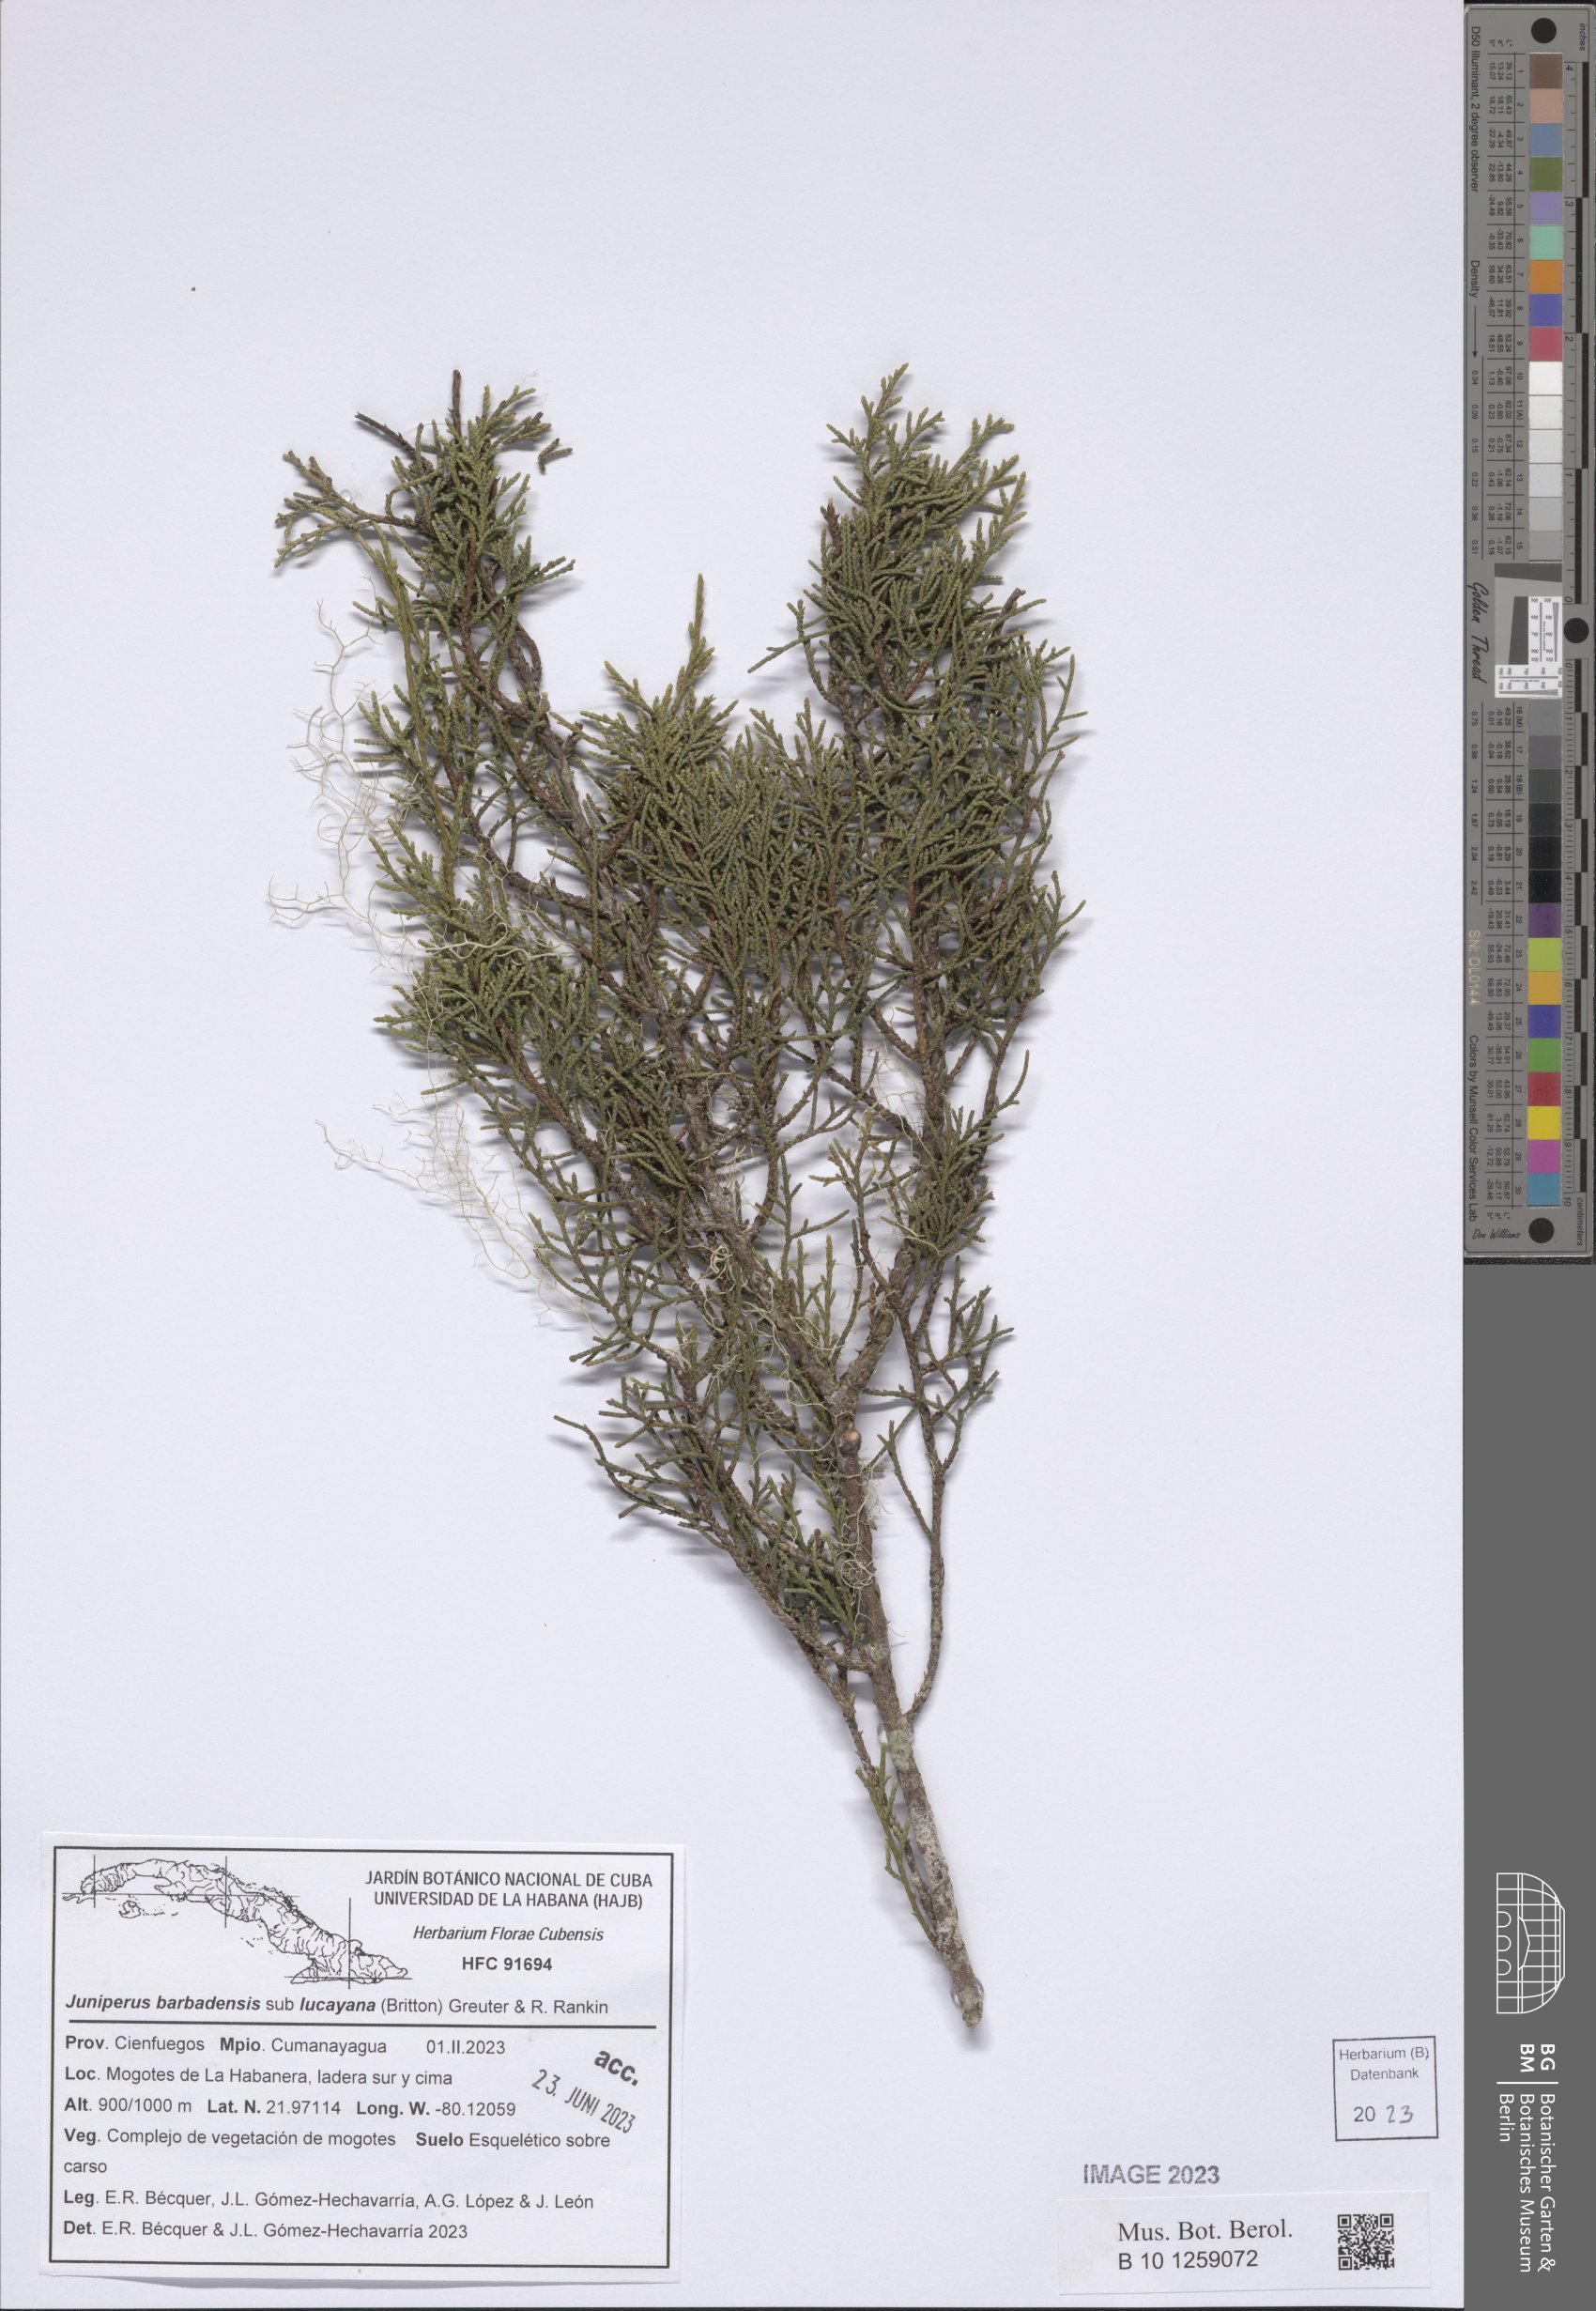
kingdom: Plantae
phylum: Tracheophyta
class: Pinopsida
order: Pinales
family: Cupressaceae
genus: Juniperus
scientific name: Juniperus barbadensis
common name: West indies juniper
